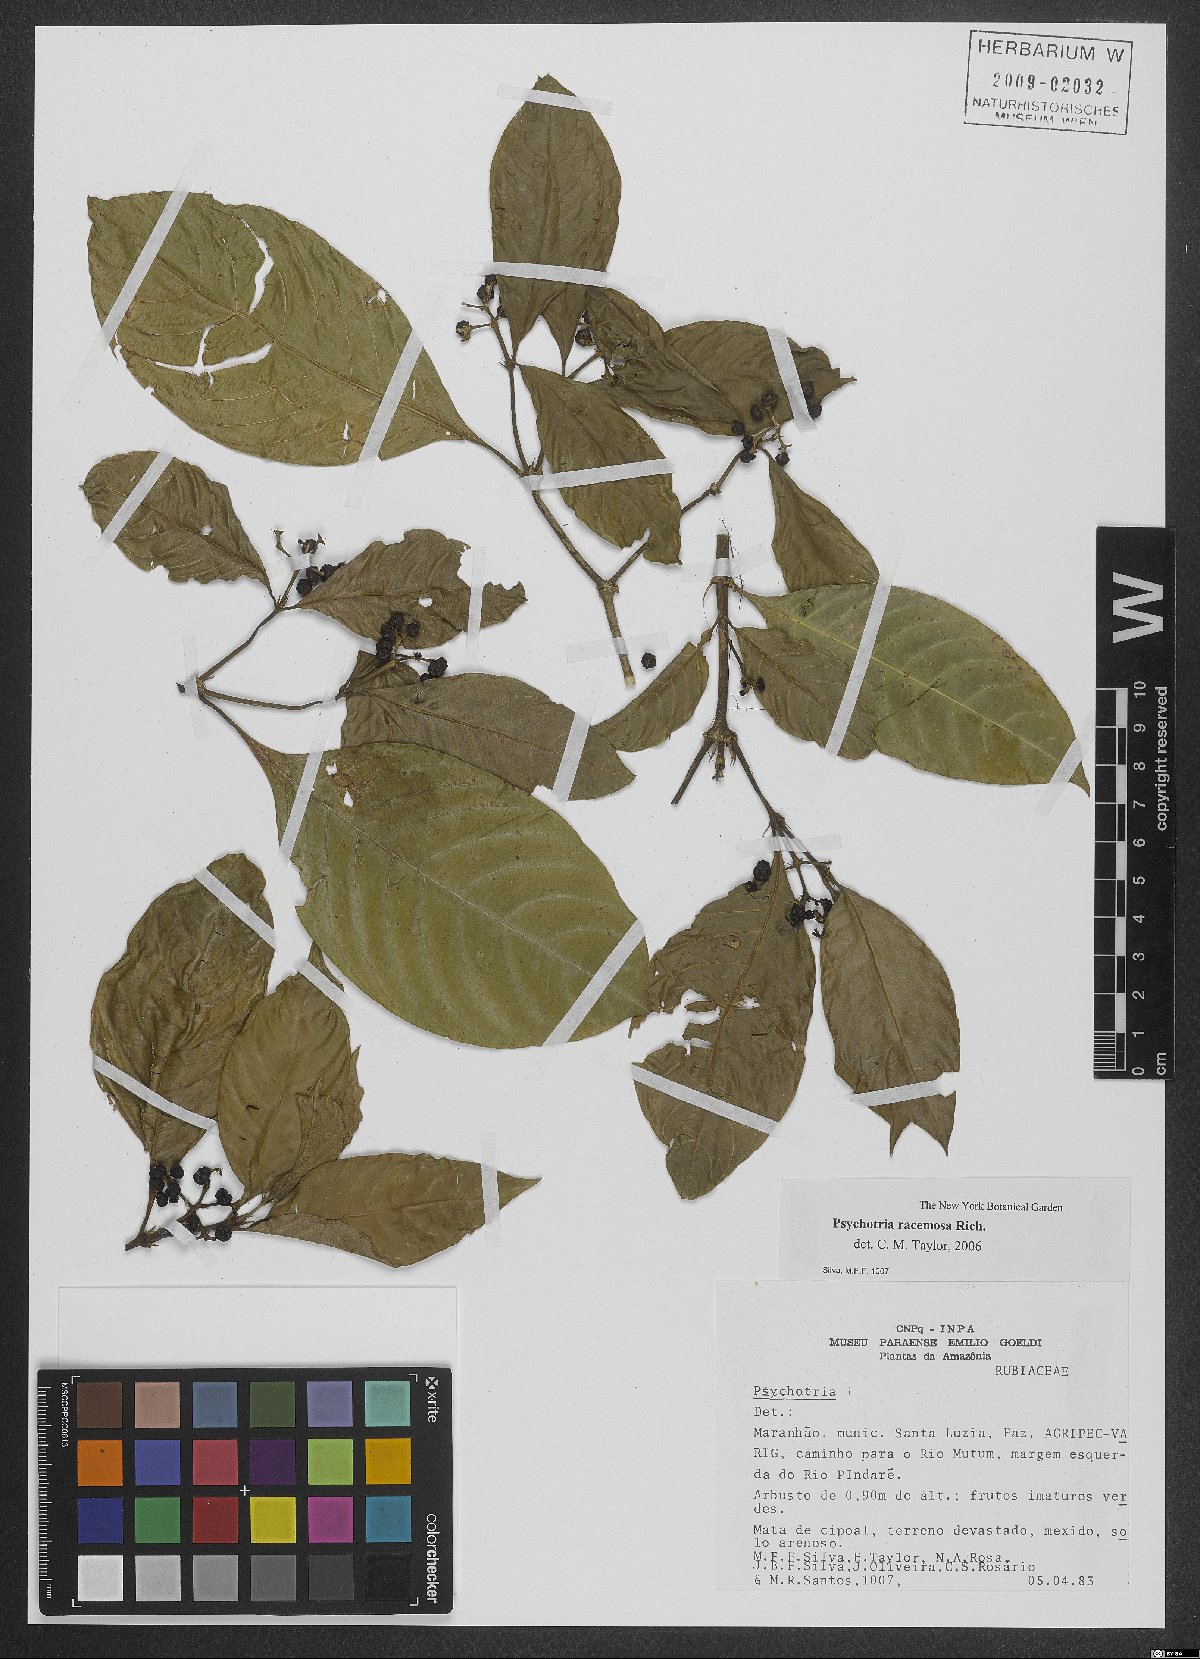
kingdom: Plantae
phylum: Tracheophyta
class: Magnoliopsida
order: Gentianales
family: Rubiaceae
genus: Palicourea
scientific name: Palicourea racemosa
